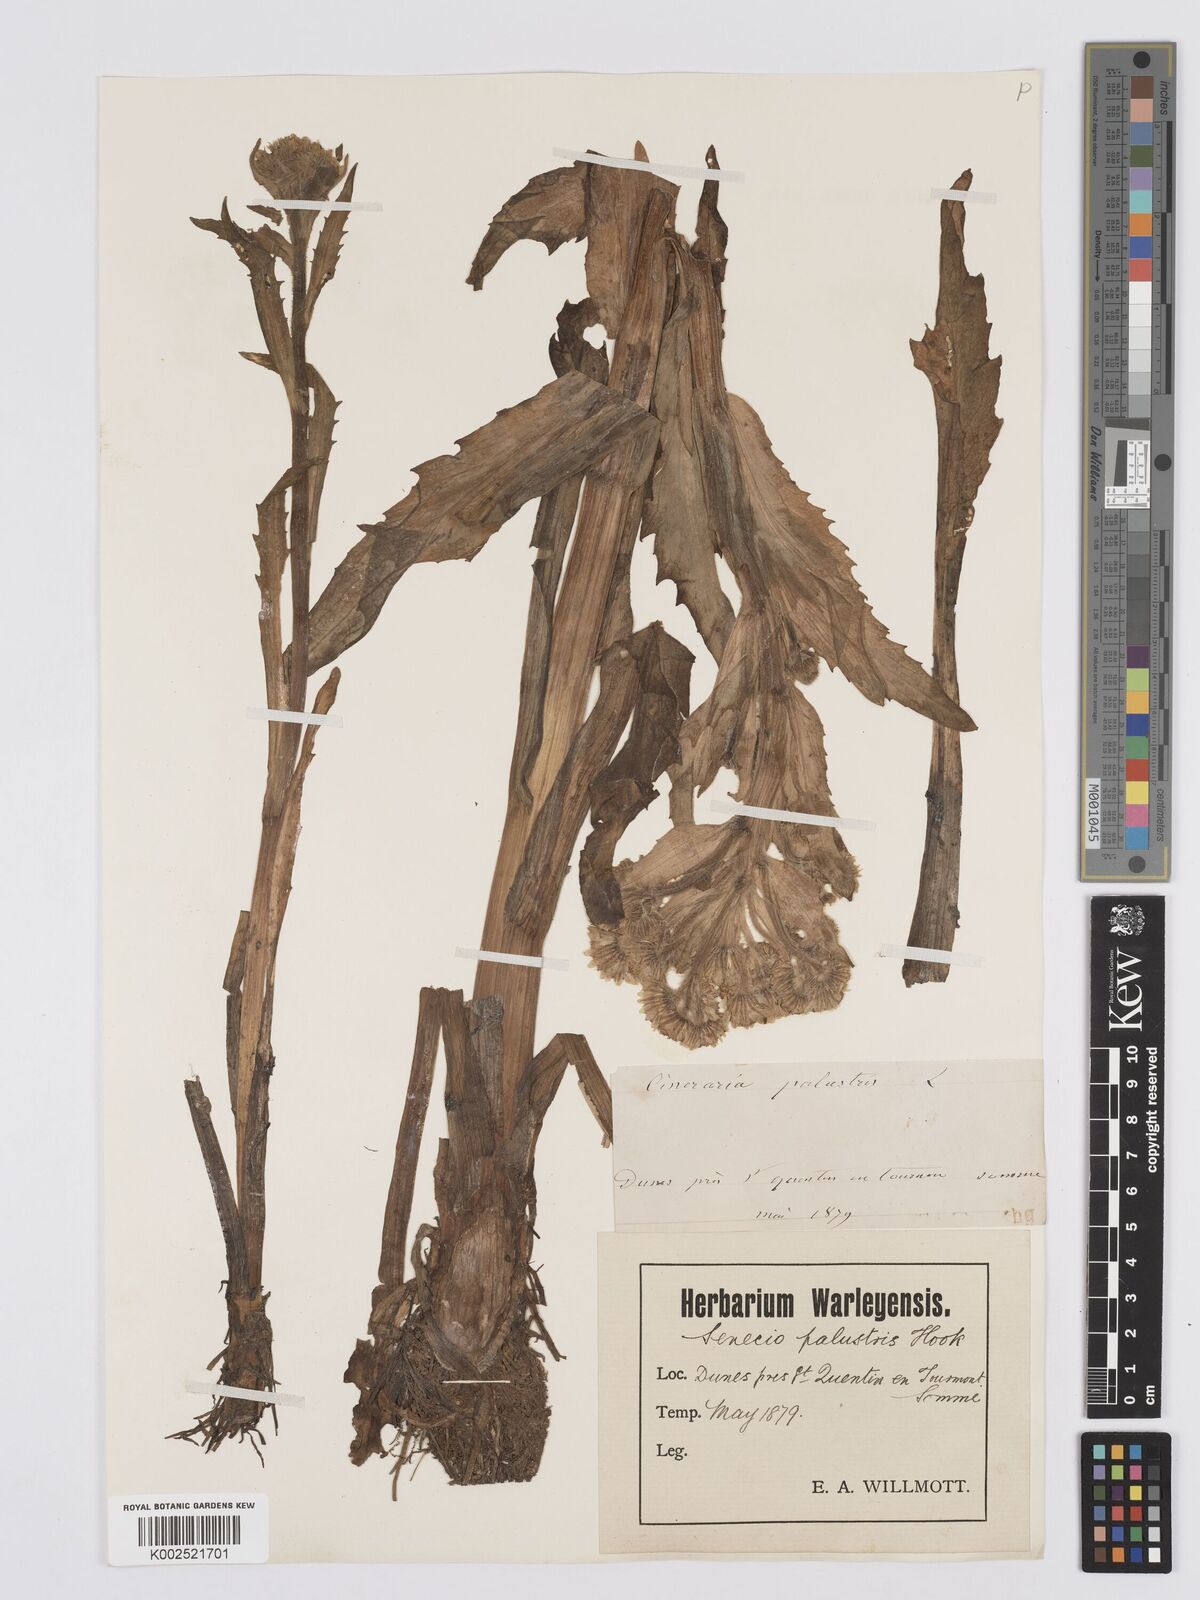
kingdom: Plantae
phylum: Tracheophyta
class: Magnoliopsida
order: Asterales
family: Asteraceae
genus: Tephroseris
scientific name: Tephroseris palustris
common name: Marsh fleawort
